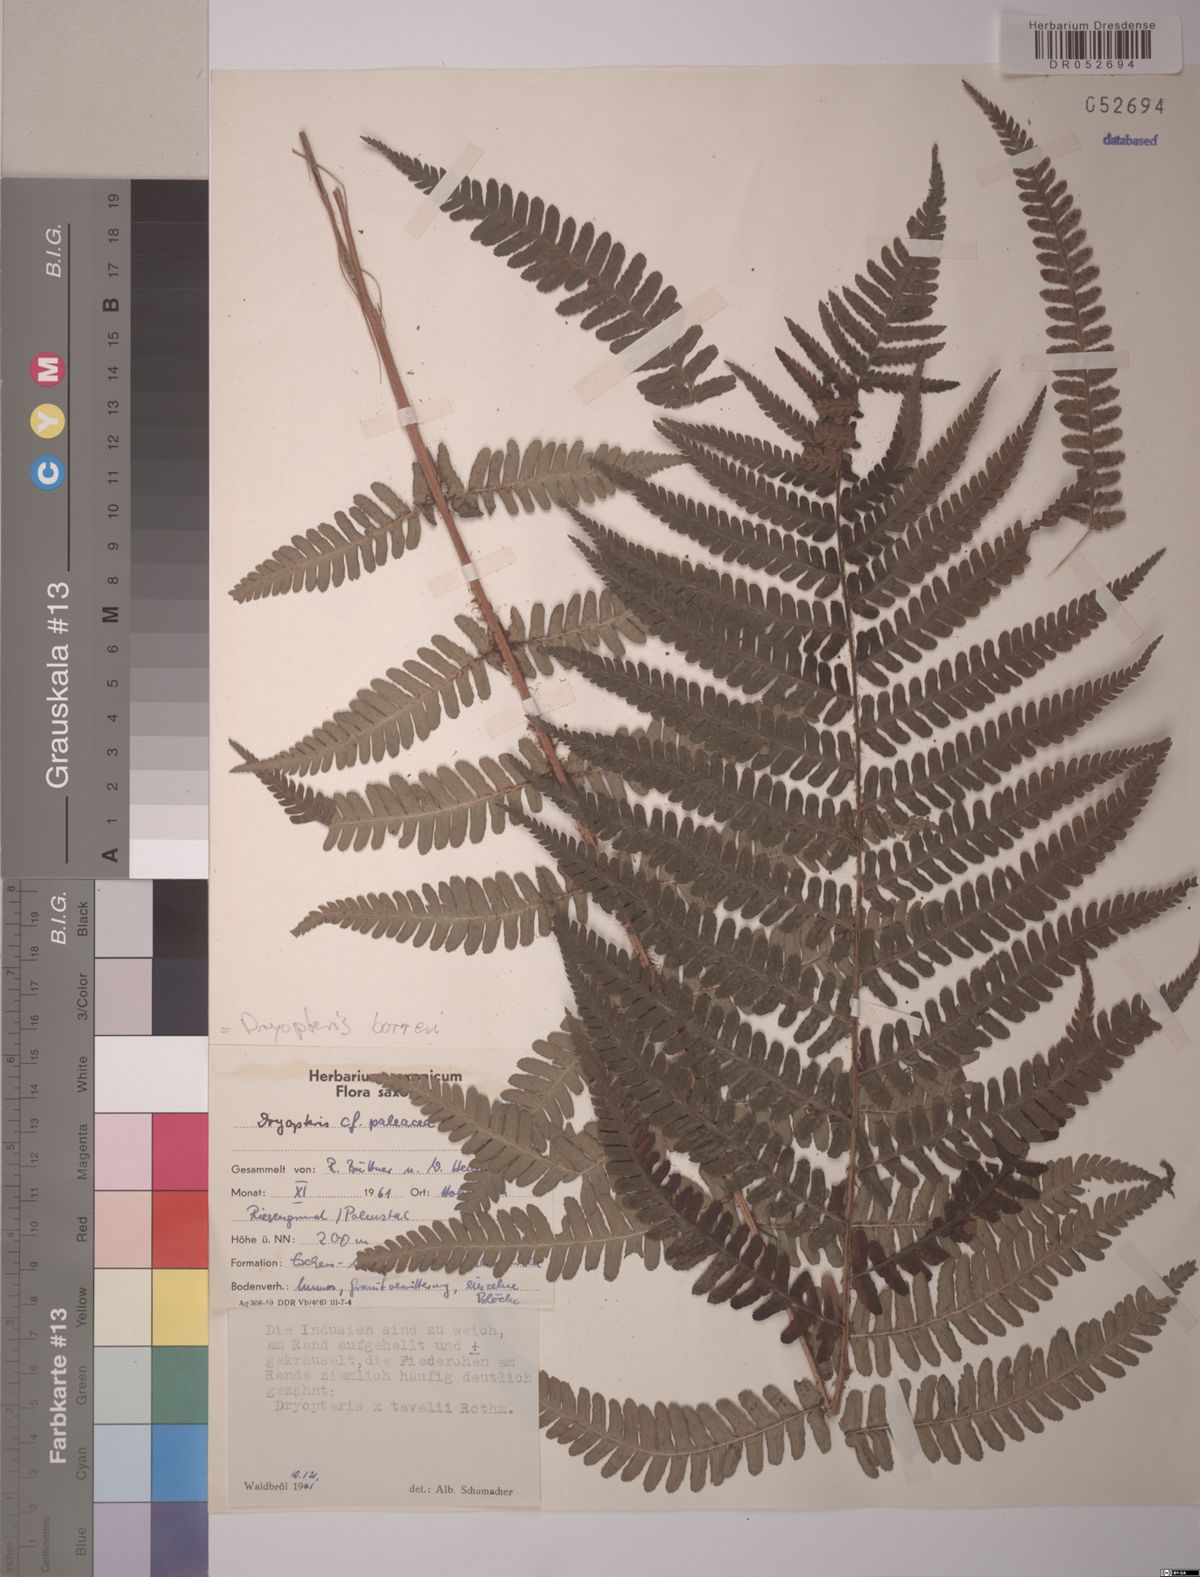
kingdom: Plantae
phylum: Tracheophyta
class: Polypodiopsida
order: Polypodiales
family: Dryopteridaceae
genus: Dryopteris
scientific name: Dryopteris borreri
